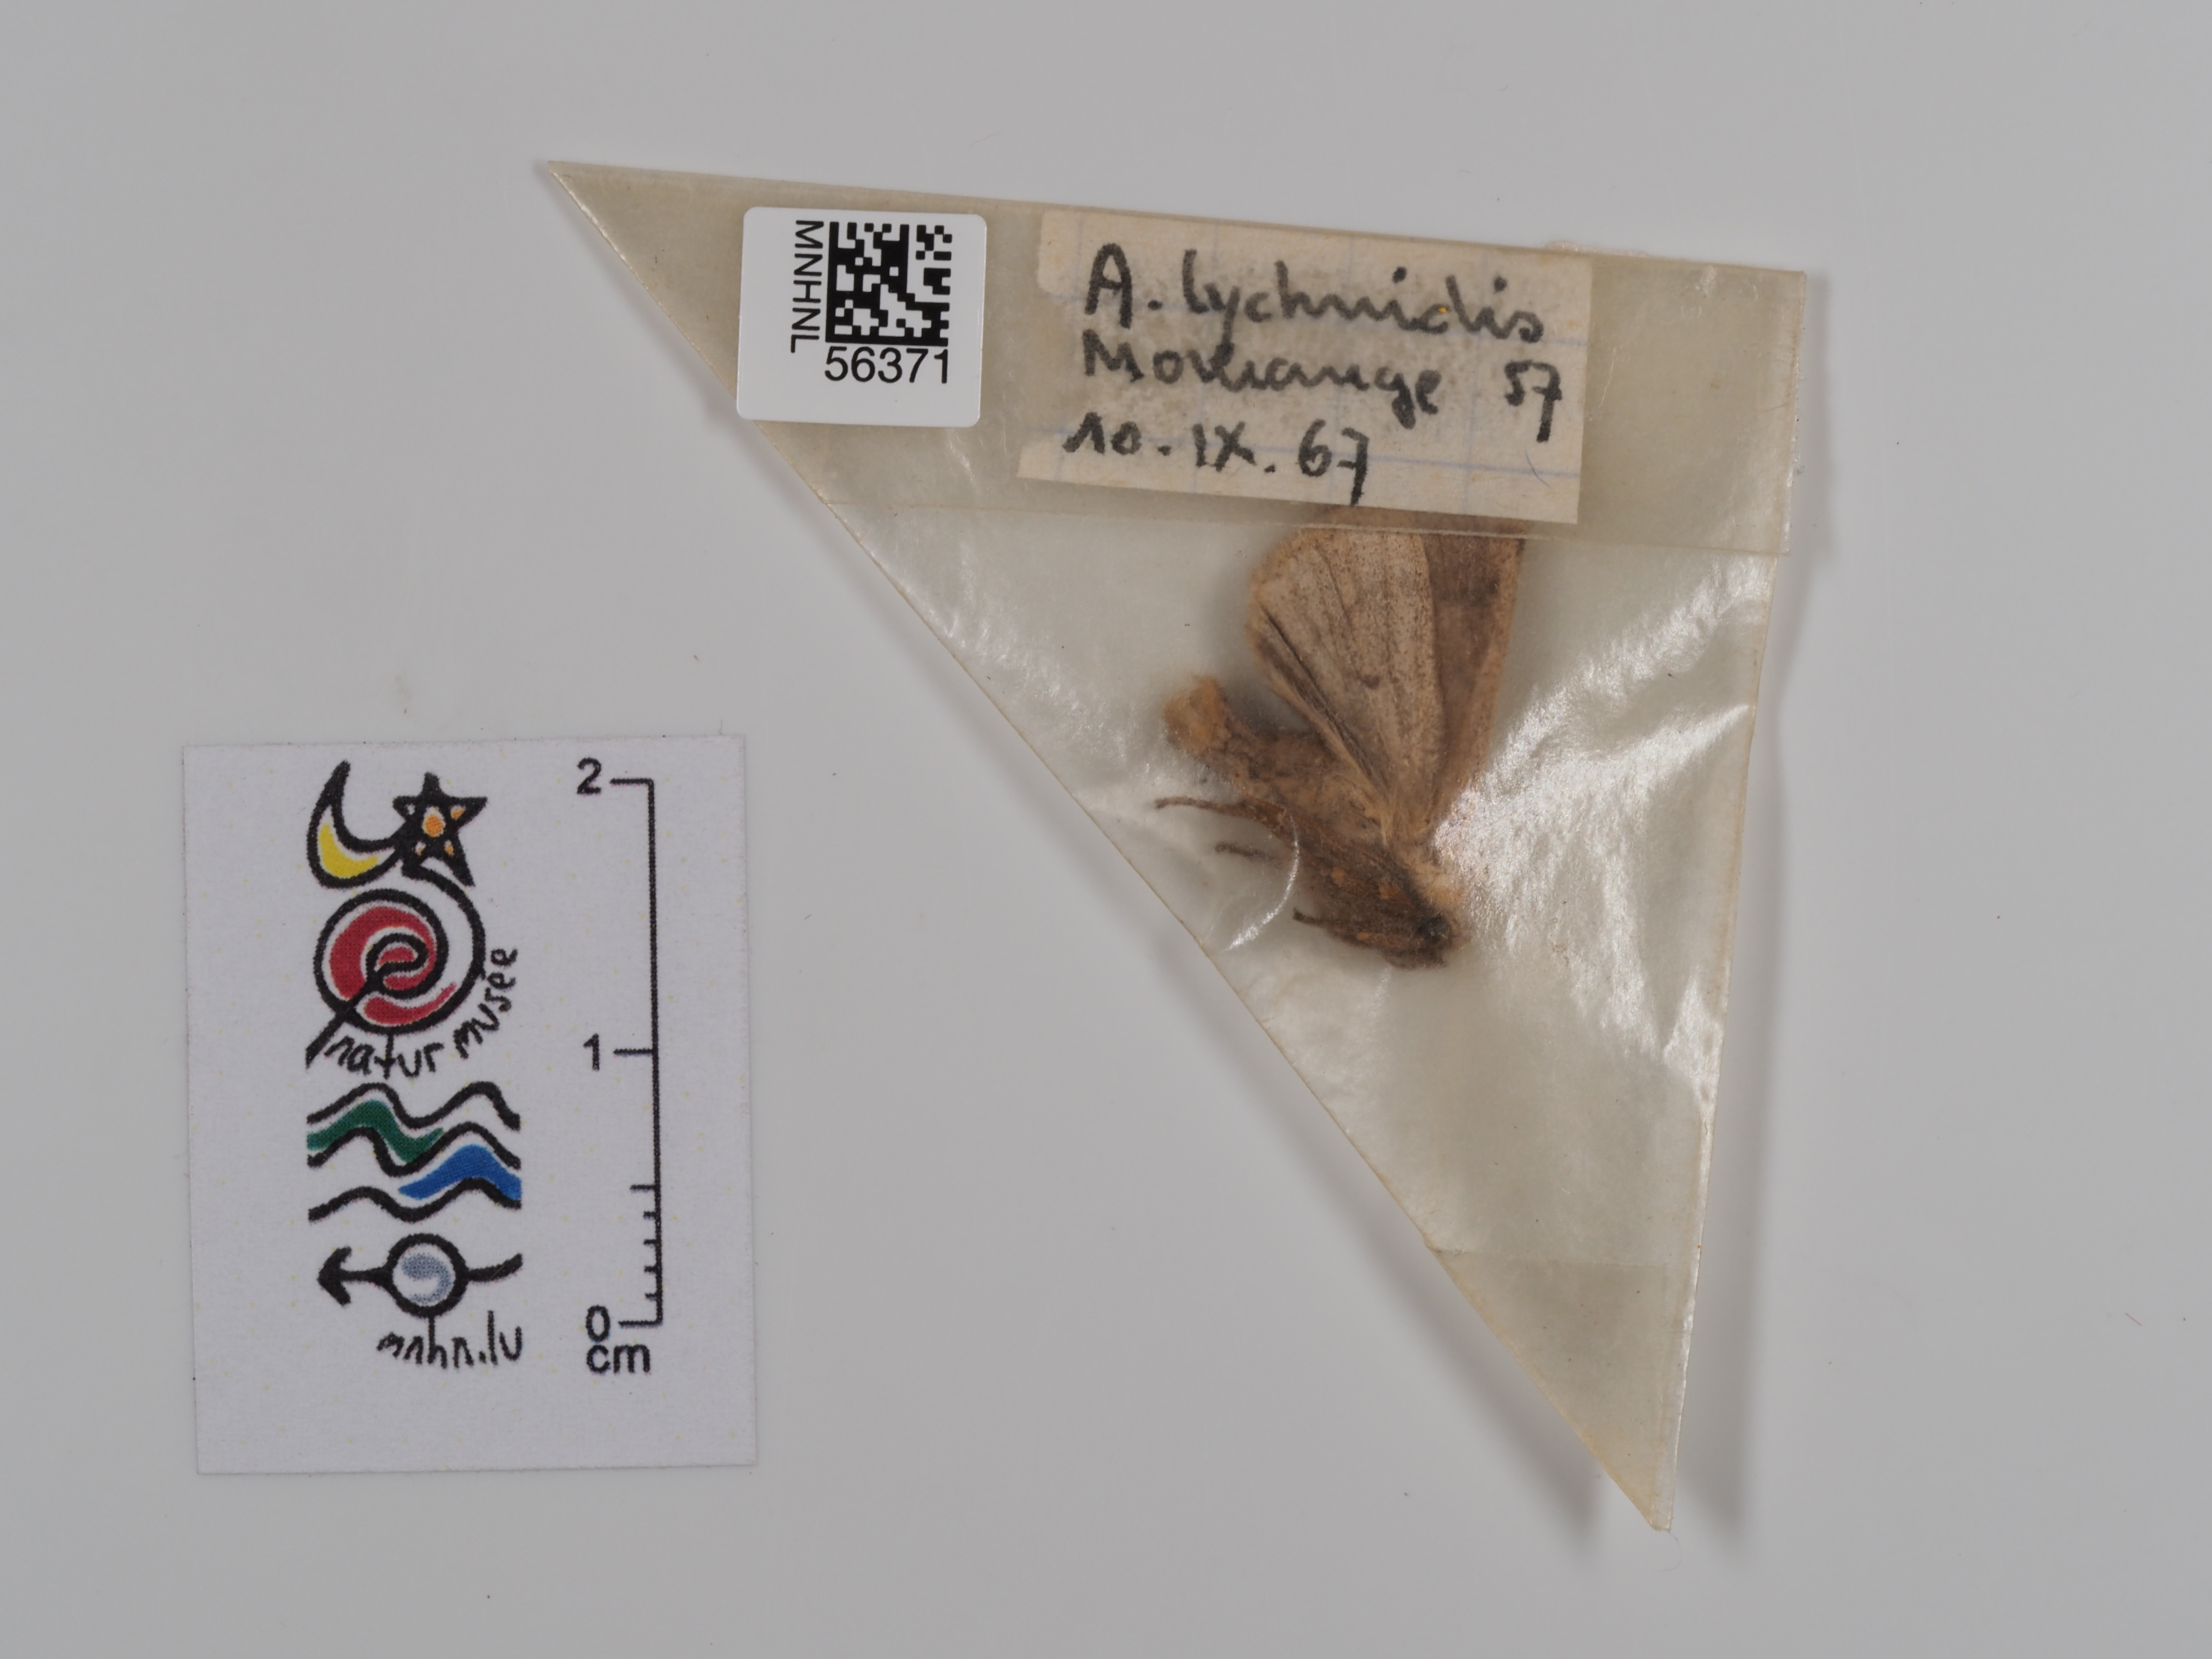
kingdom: Animalia
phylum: Arthropoda
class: Insecta
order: Lepidoptera
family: Noctuidae
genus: Agrochola
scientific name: Agrochola lychnidis
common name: Beaded chestnut
